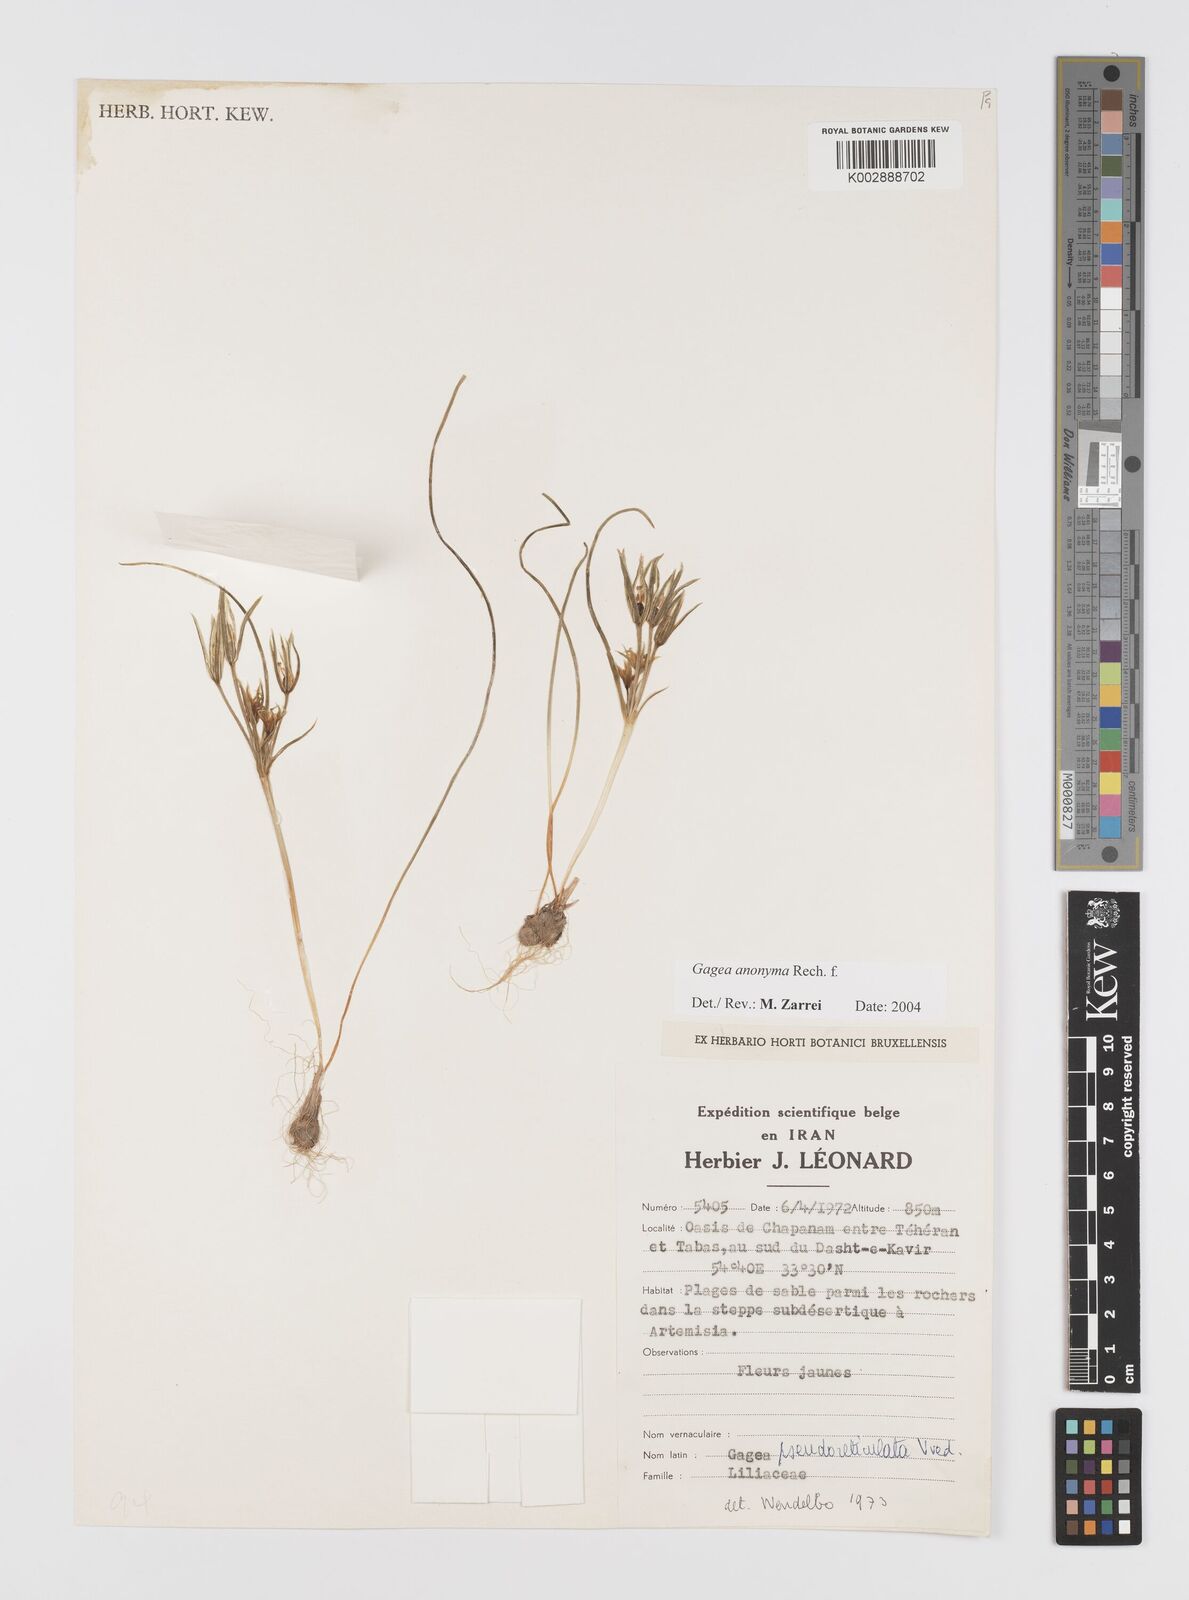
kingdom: Plantae
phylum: Tracheophyta
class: Liliopsida
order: Liliales
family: Liliaceae
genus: Gagea
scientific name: Gagea setifolia
